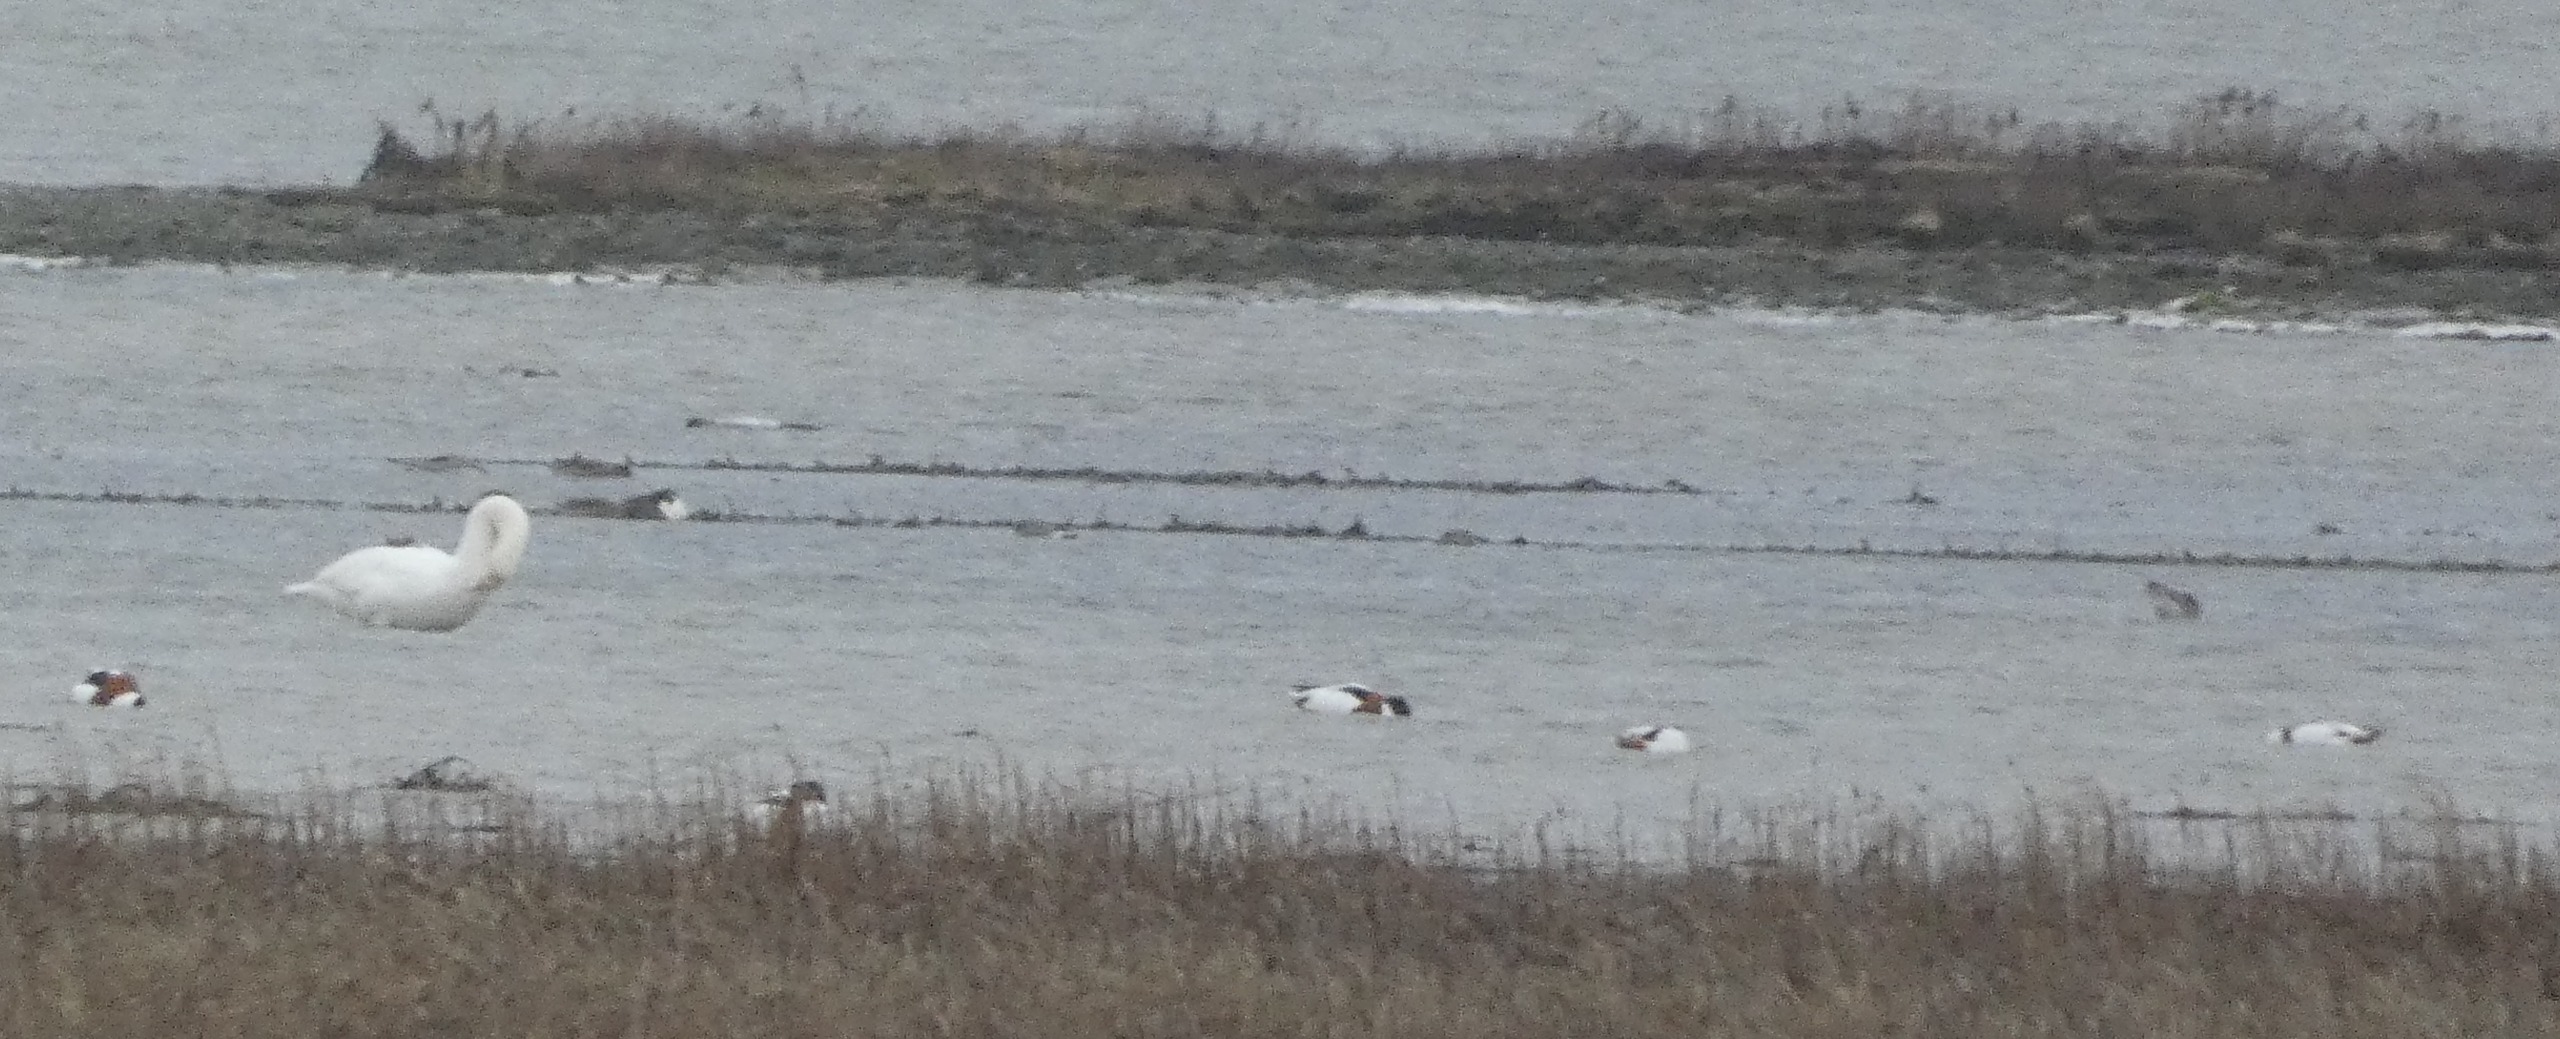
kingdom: Animalia
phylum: Chordata
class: Aves
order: Anseriformes
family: Anatidae
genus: Tadorna
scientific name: Tadorna tadorna
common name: Gravand
